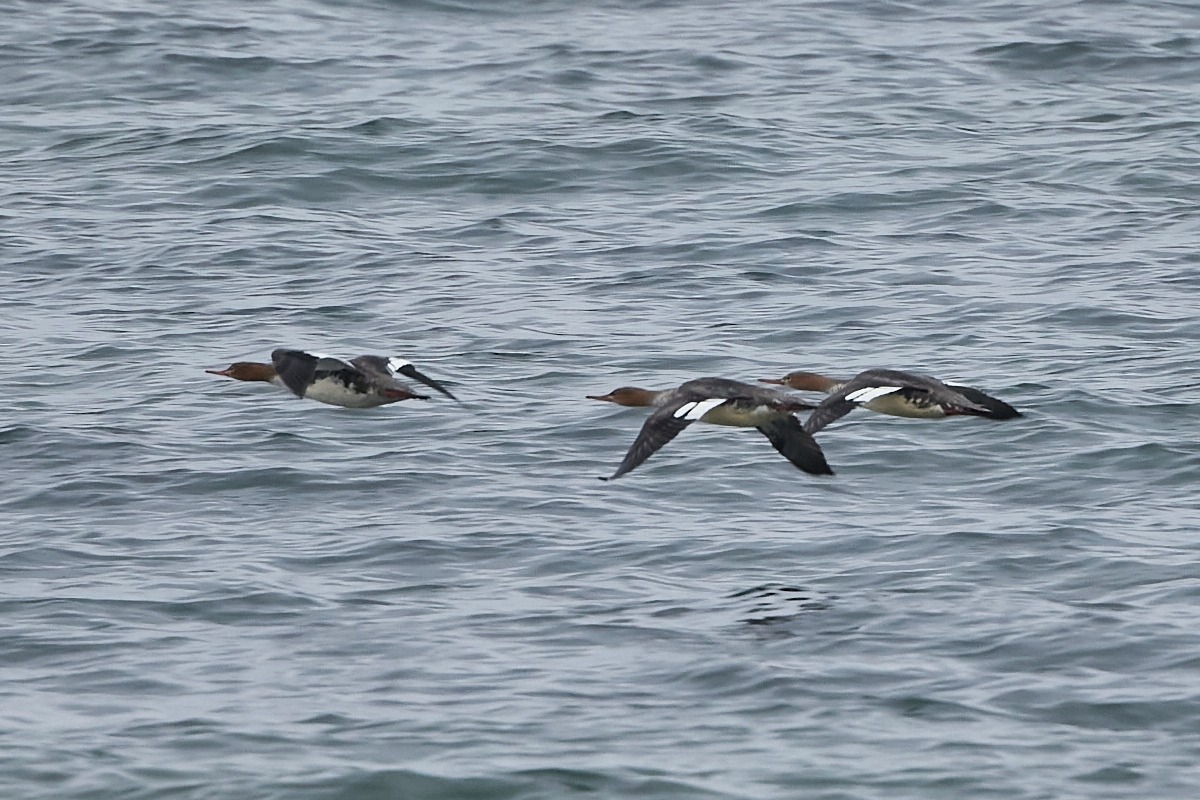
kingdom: Animalia
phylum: Chordata
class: Aves
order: Anseriformes
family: Anatidae
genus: Mergus
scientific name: Mergus serrator
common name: Toppet skallesluger
